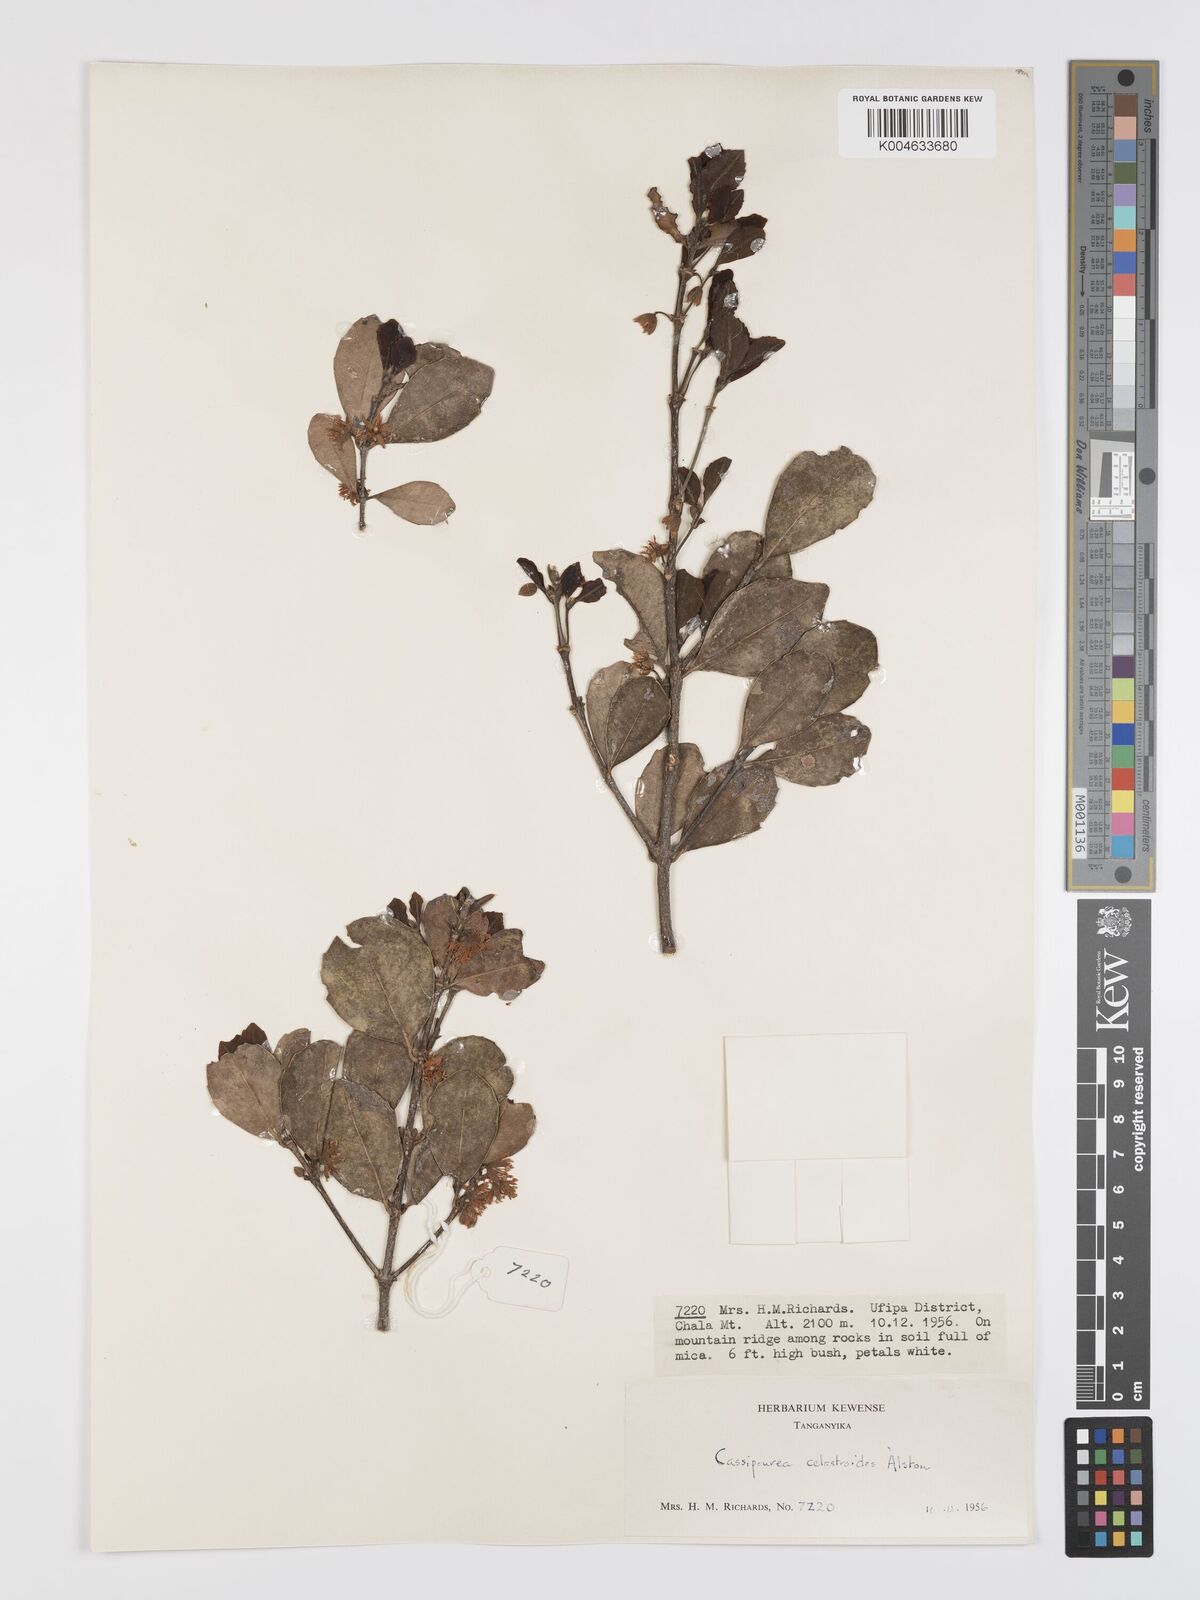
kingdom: Plantae
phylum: Tracheophyta
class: Magnoliopsida
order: Malpighiales
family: Rhizophoraceae
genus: Cassipourea
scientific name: Cassipourea celastroides
